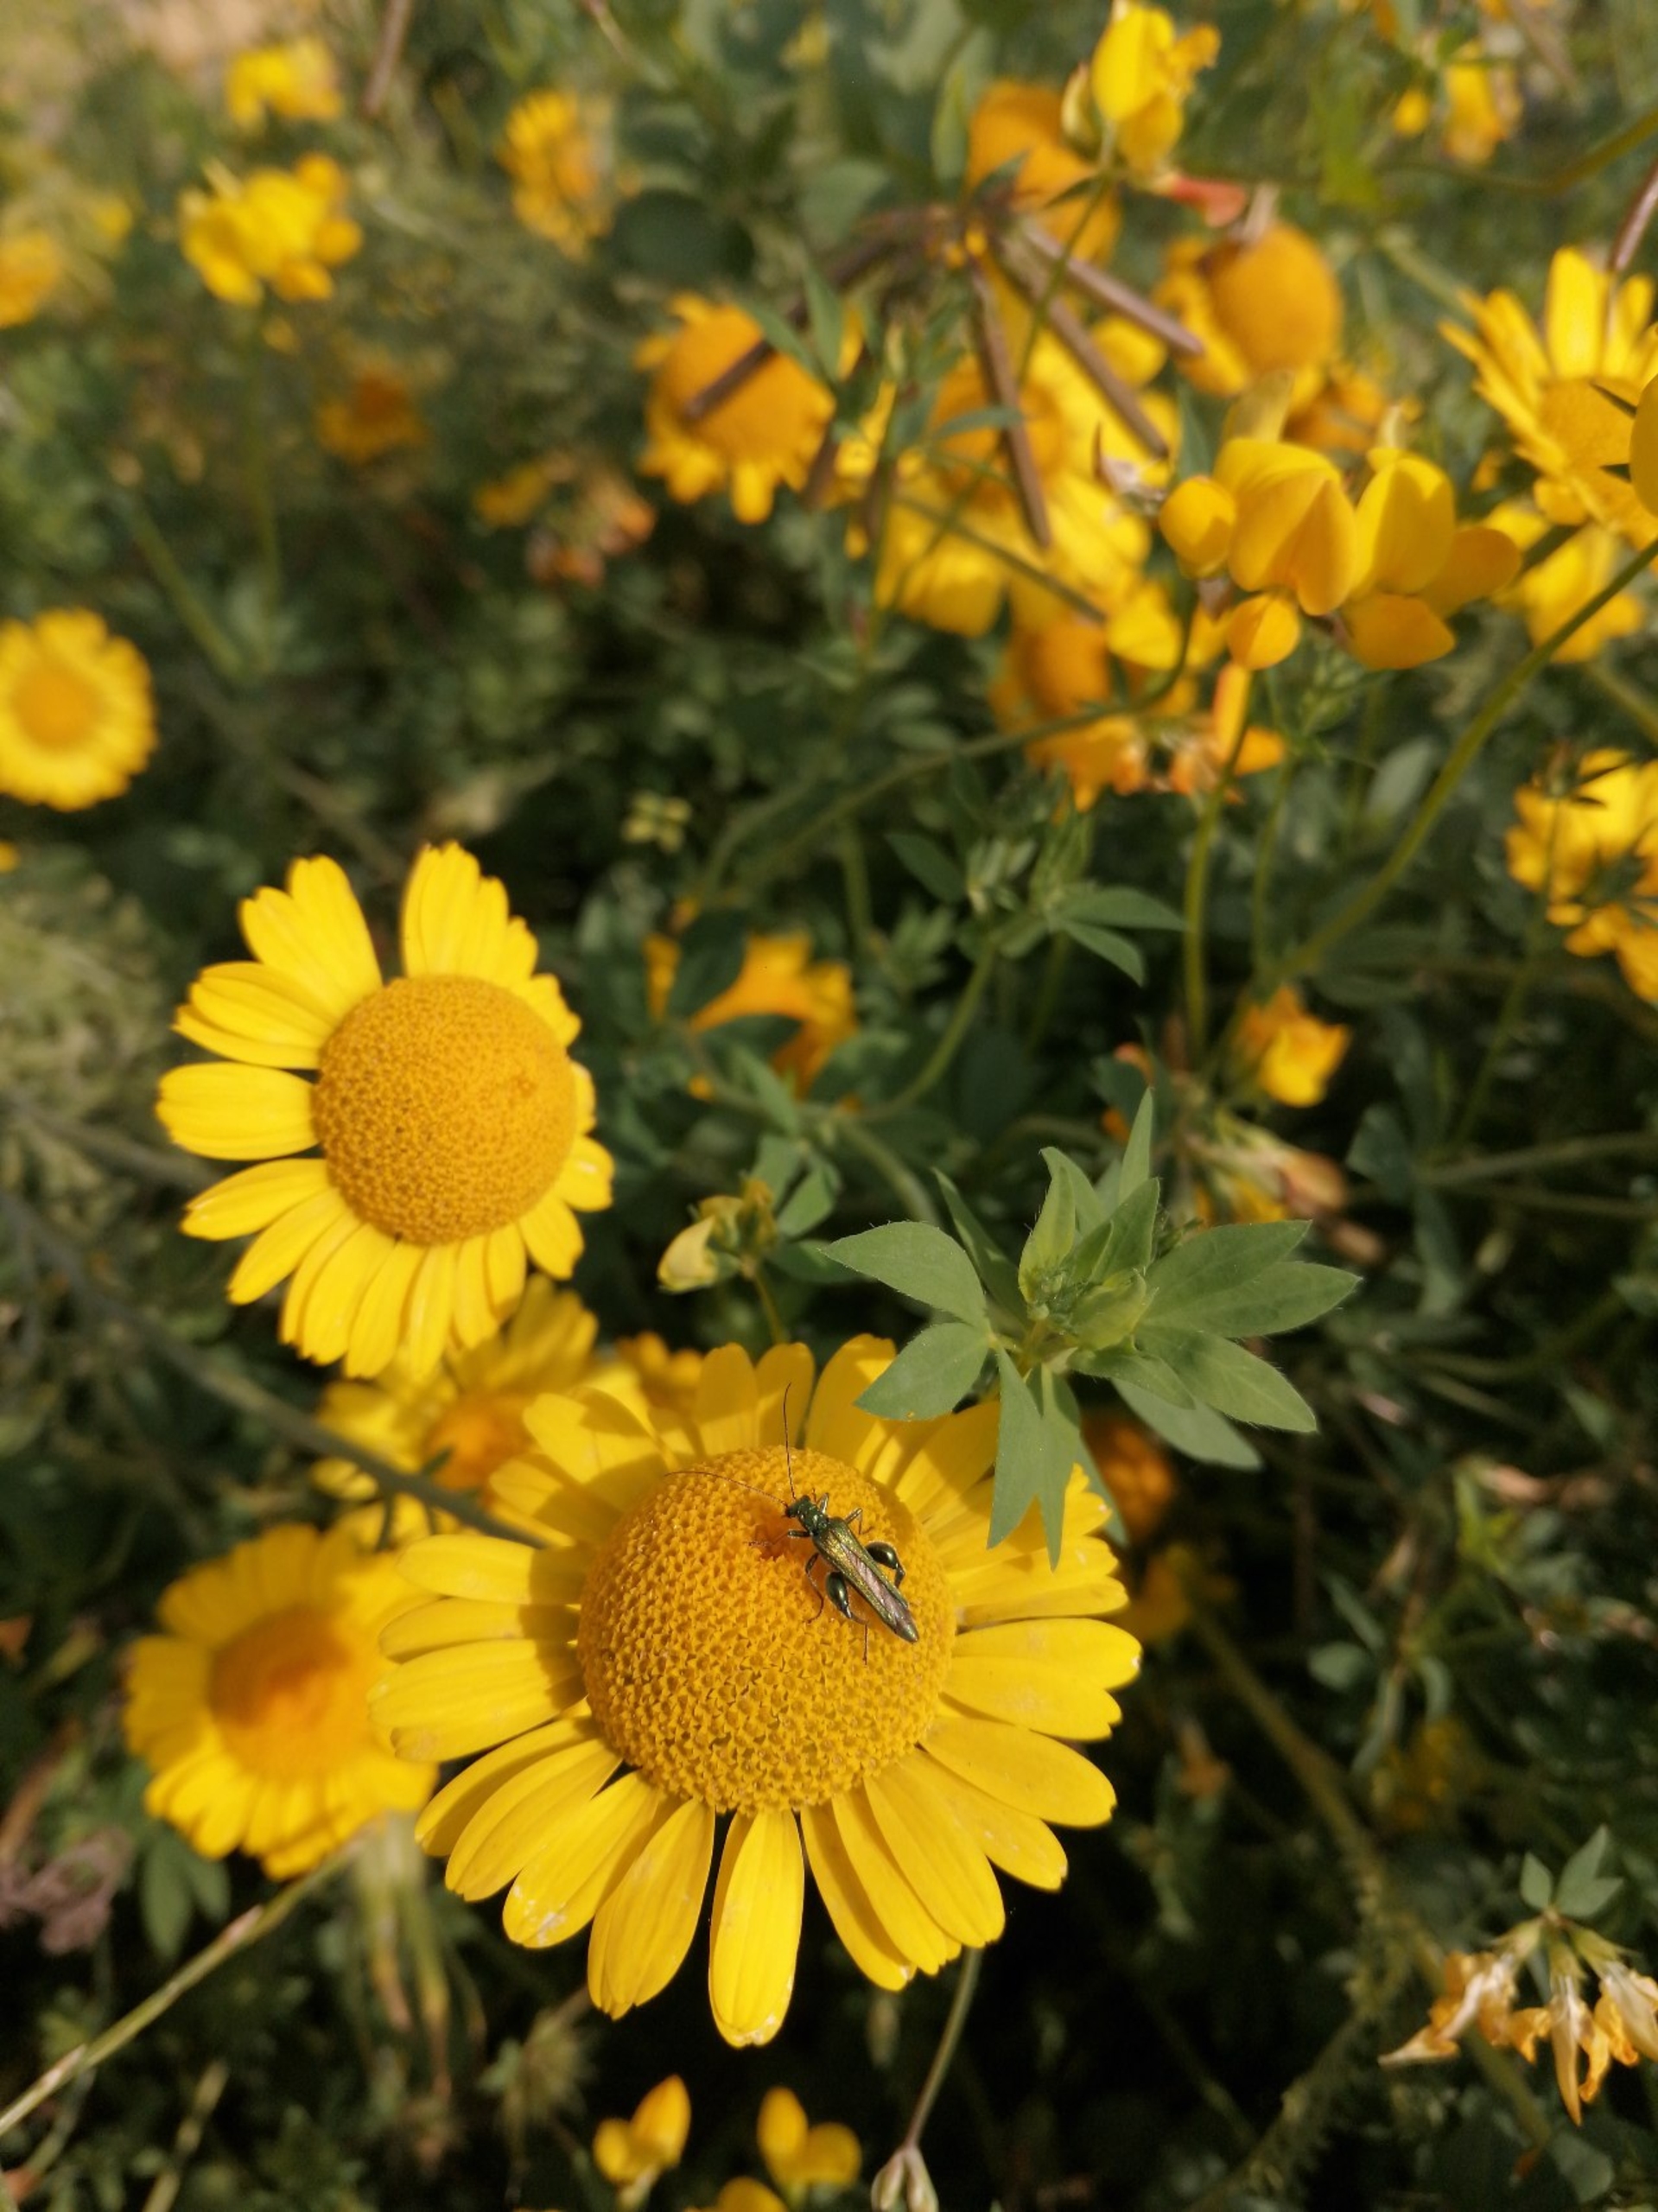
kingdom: Animalia
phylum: Arthropoda
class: Insecta
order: Coleoptera
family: Oedemeridae
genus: Oedemera
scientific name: Oedemera nobilis
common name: Tyklårssolbille
